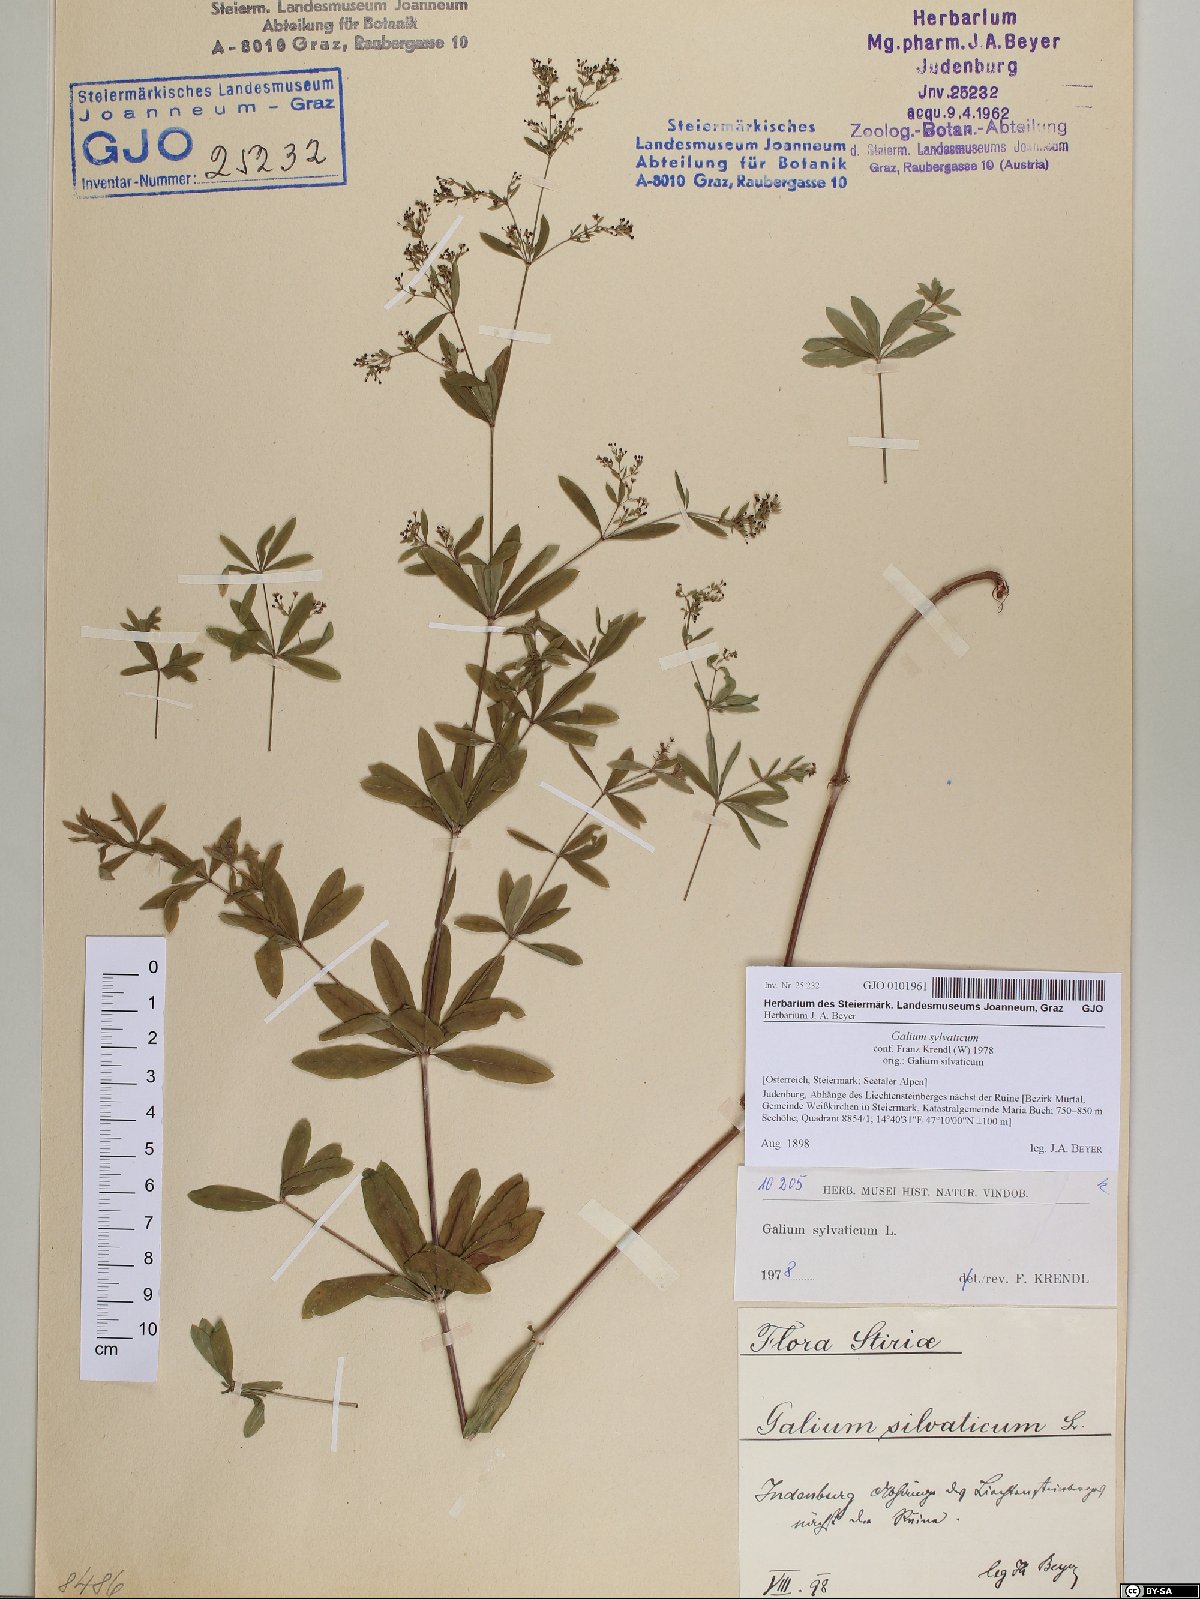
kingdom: Plantae
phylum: Tracheophyta
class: Magnoliopsida
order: Gentianales
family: Rubiaceae
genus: Galium
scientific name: Galium sylvaticum
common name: Wood bedstraw
